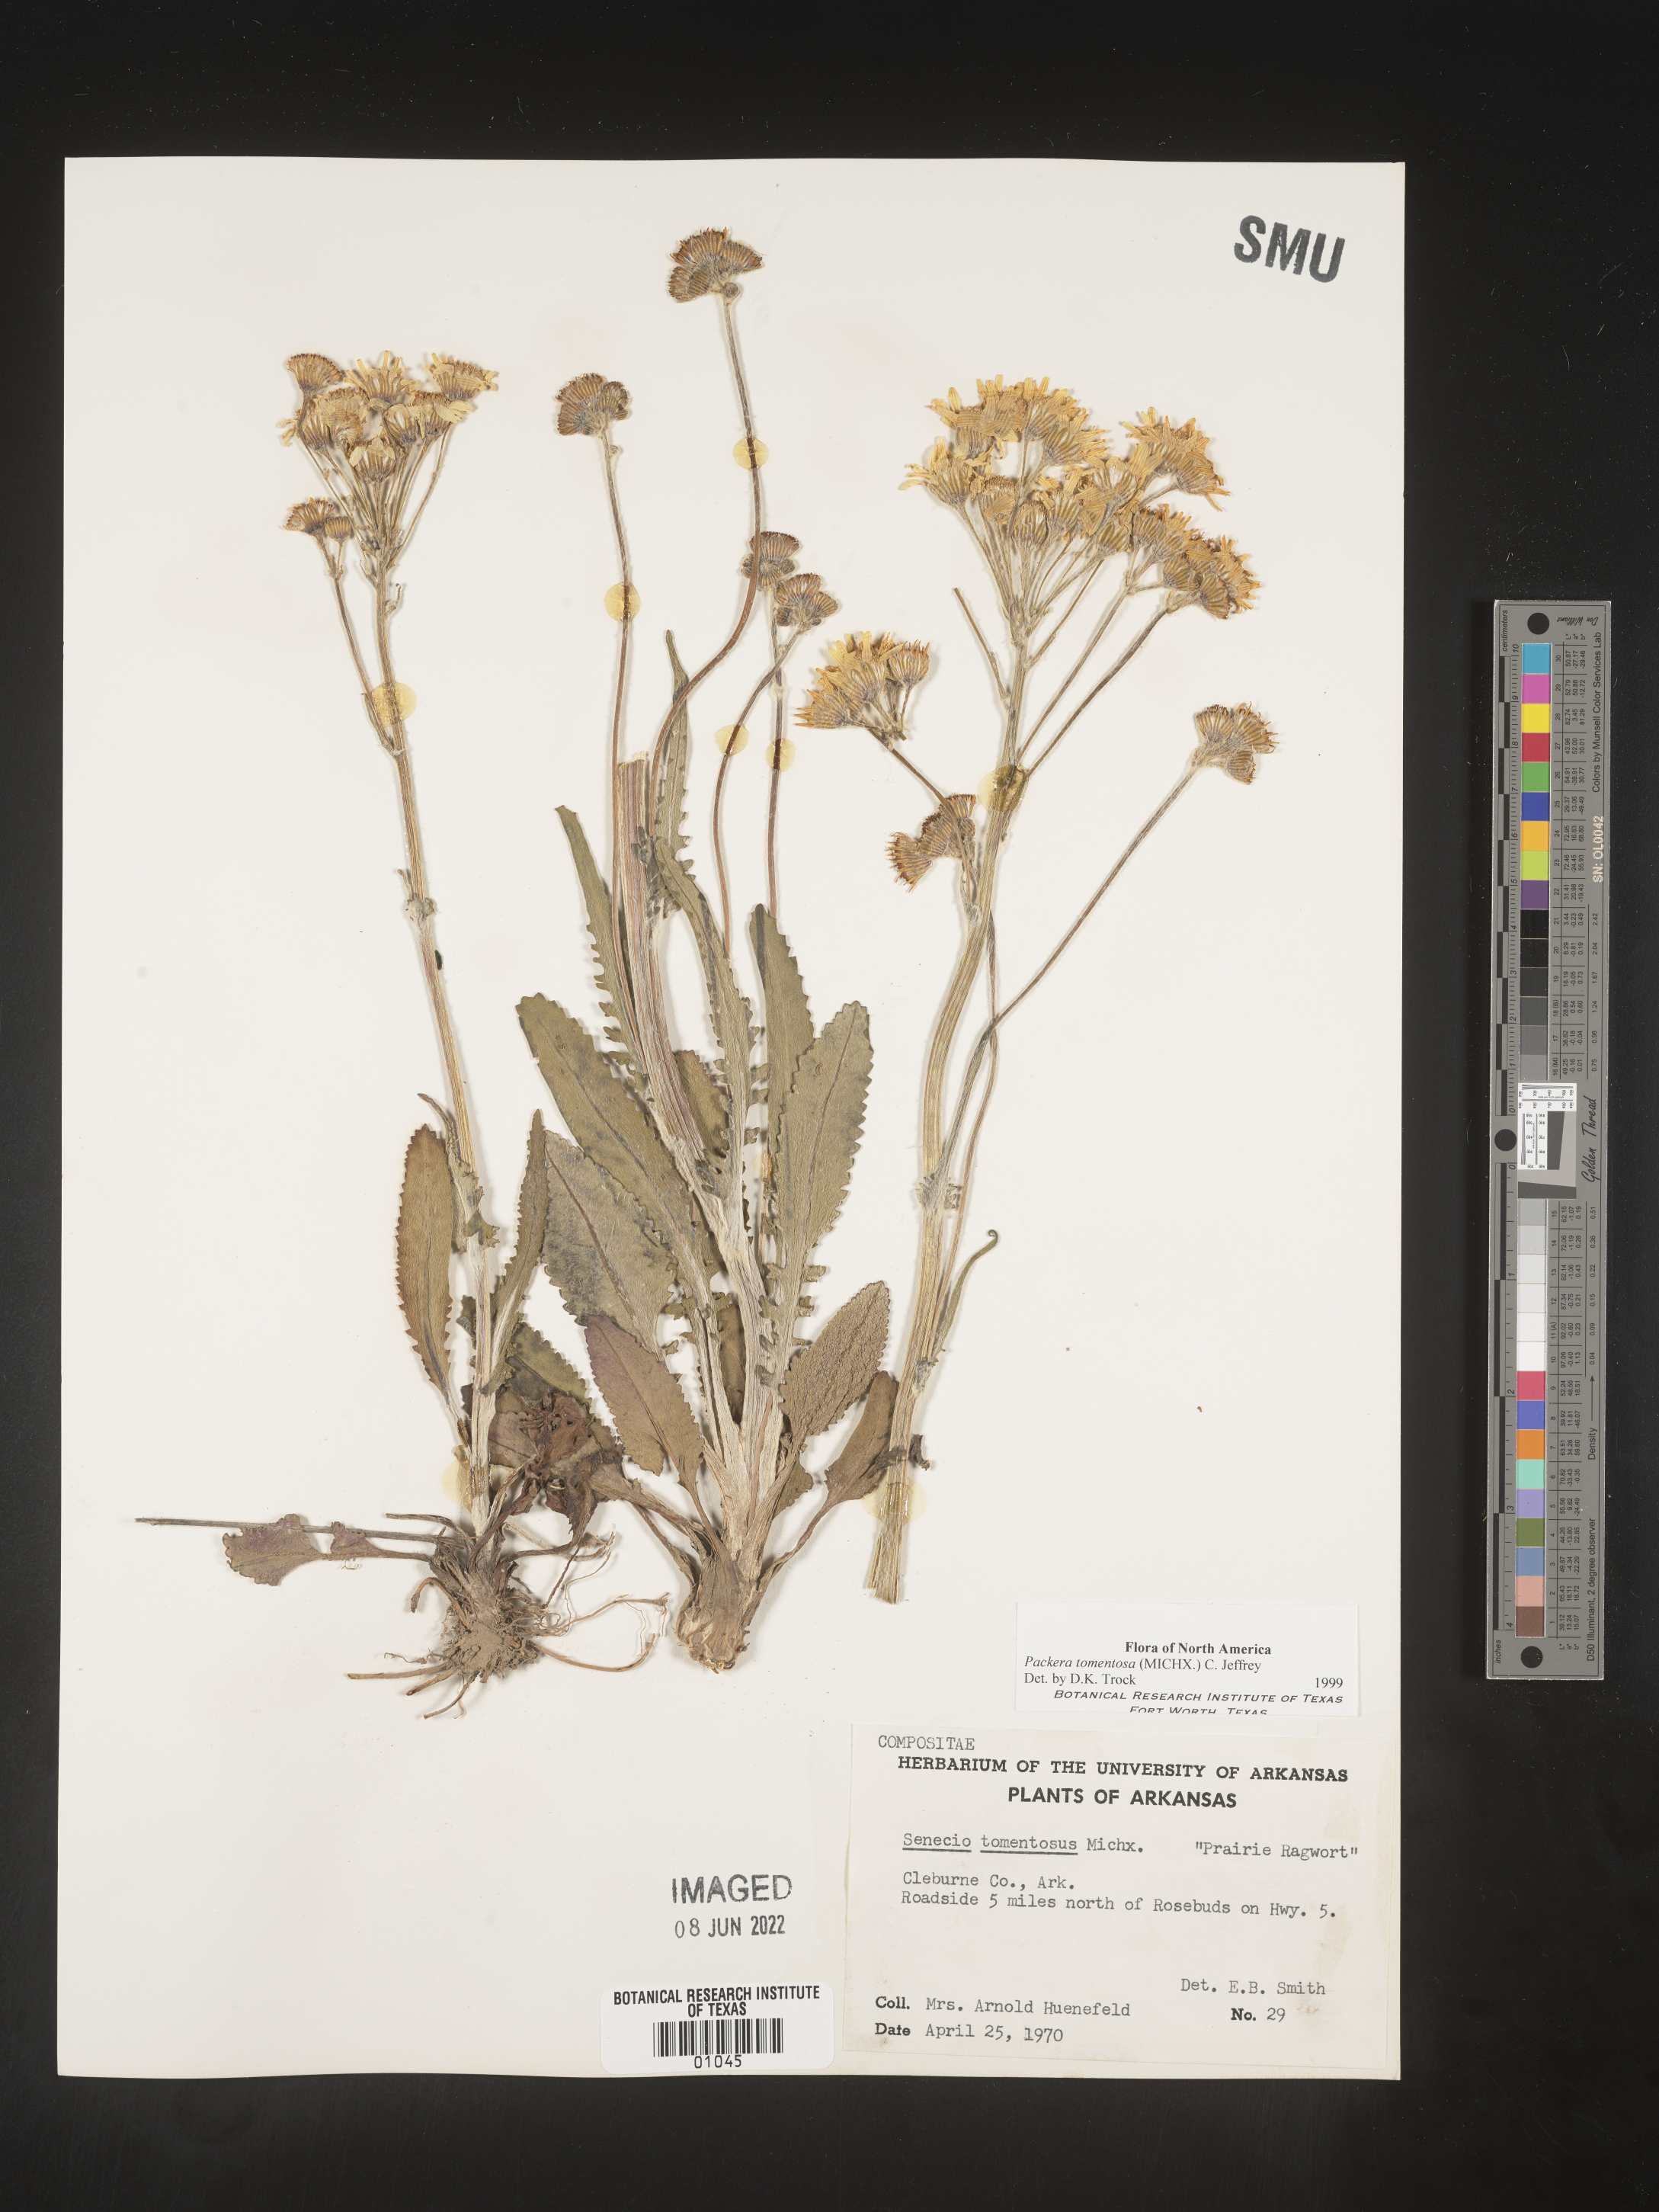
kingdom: Plantae
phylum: Tracheophyta
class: Magnoliopsida
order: Asterales
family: Asteraceae
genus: Packera
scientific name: Packera dubia
